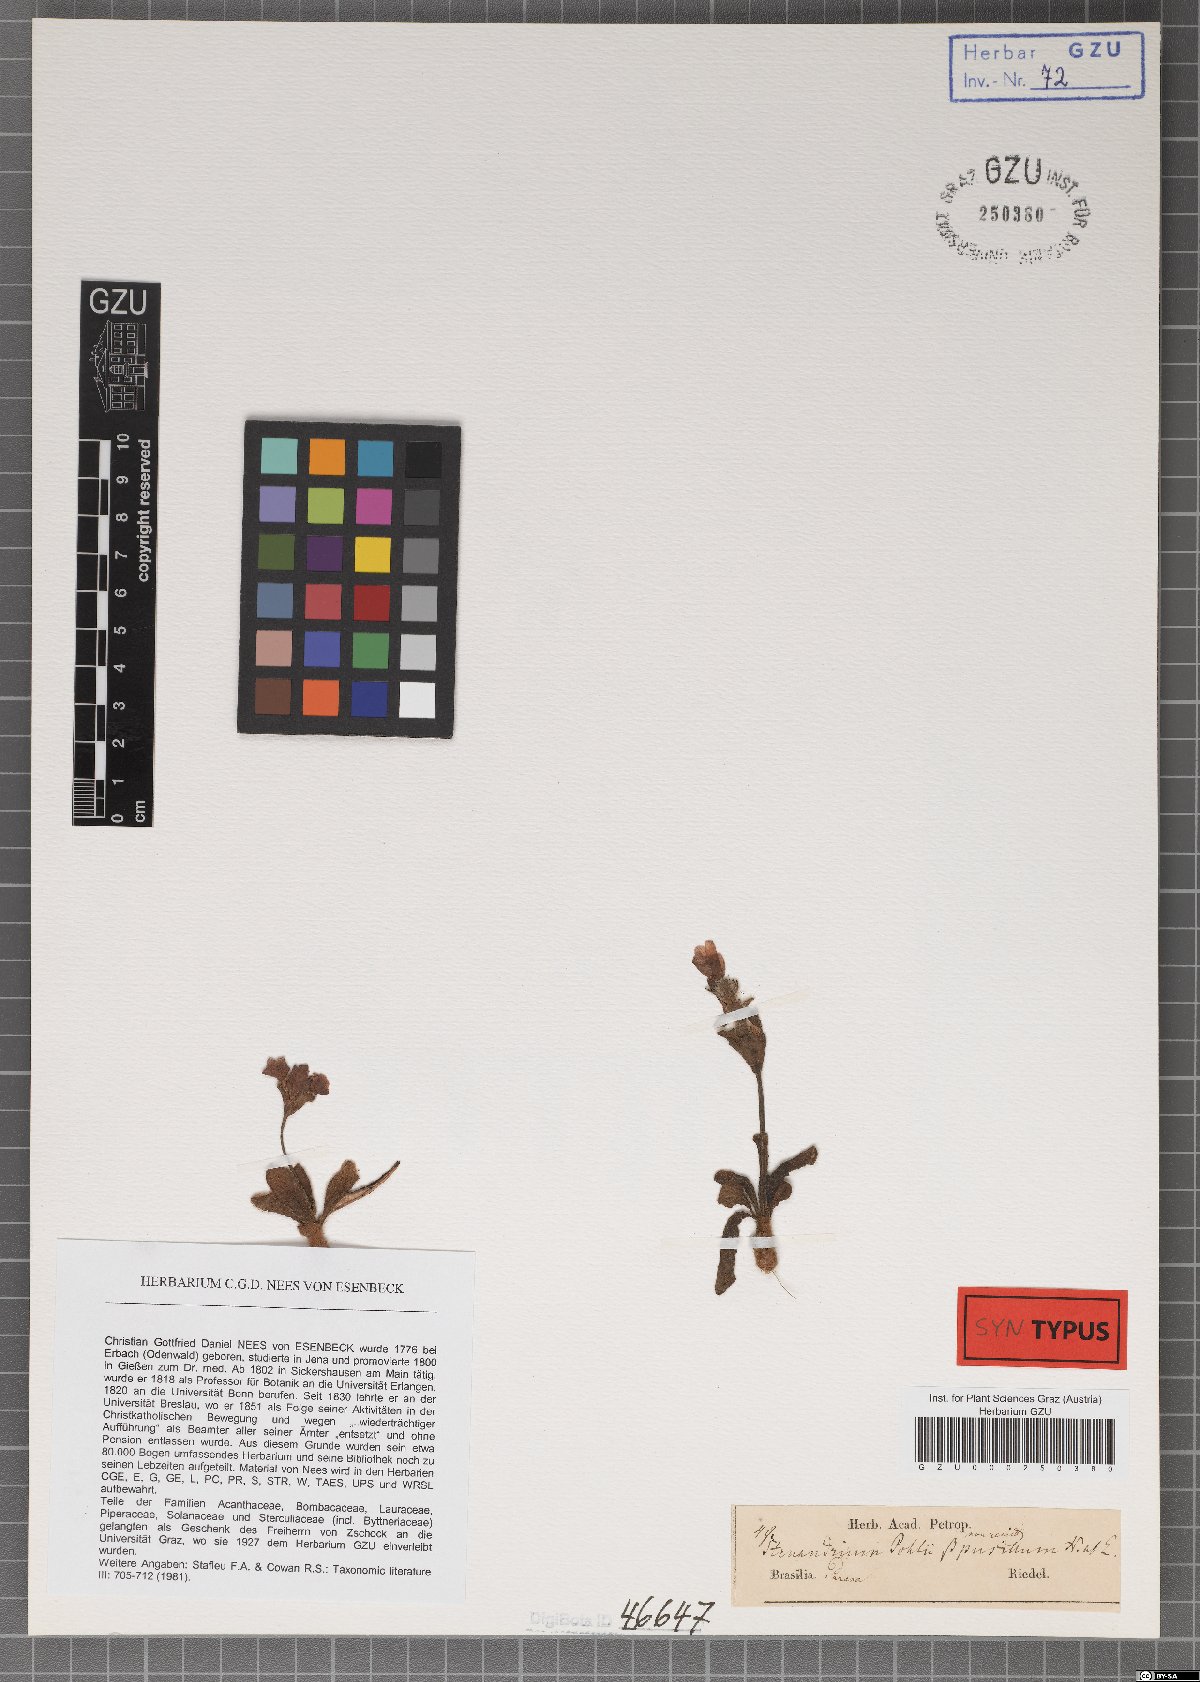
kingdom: Plantae
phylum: Tracheophyta
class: Magnoliopsida
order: Lamiales
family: Acanthaceae
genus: Stenandrium
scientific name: Stenandrium pohlii
